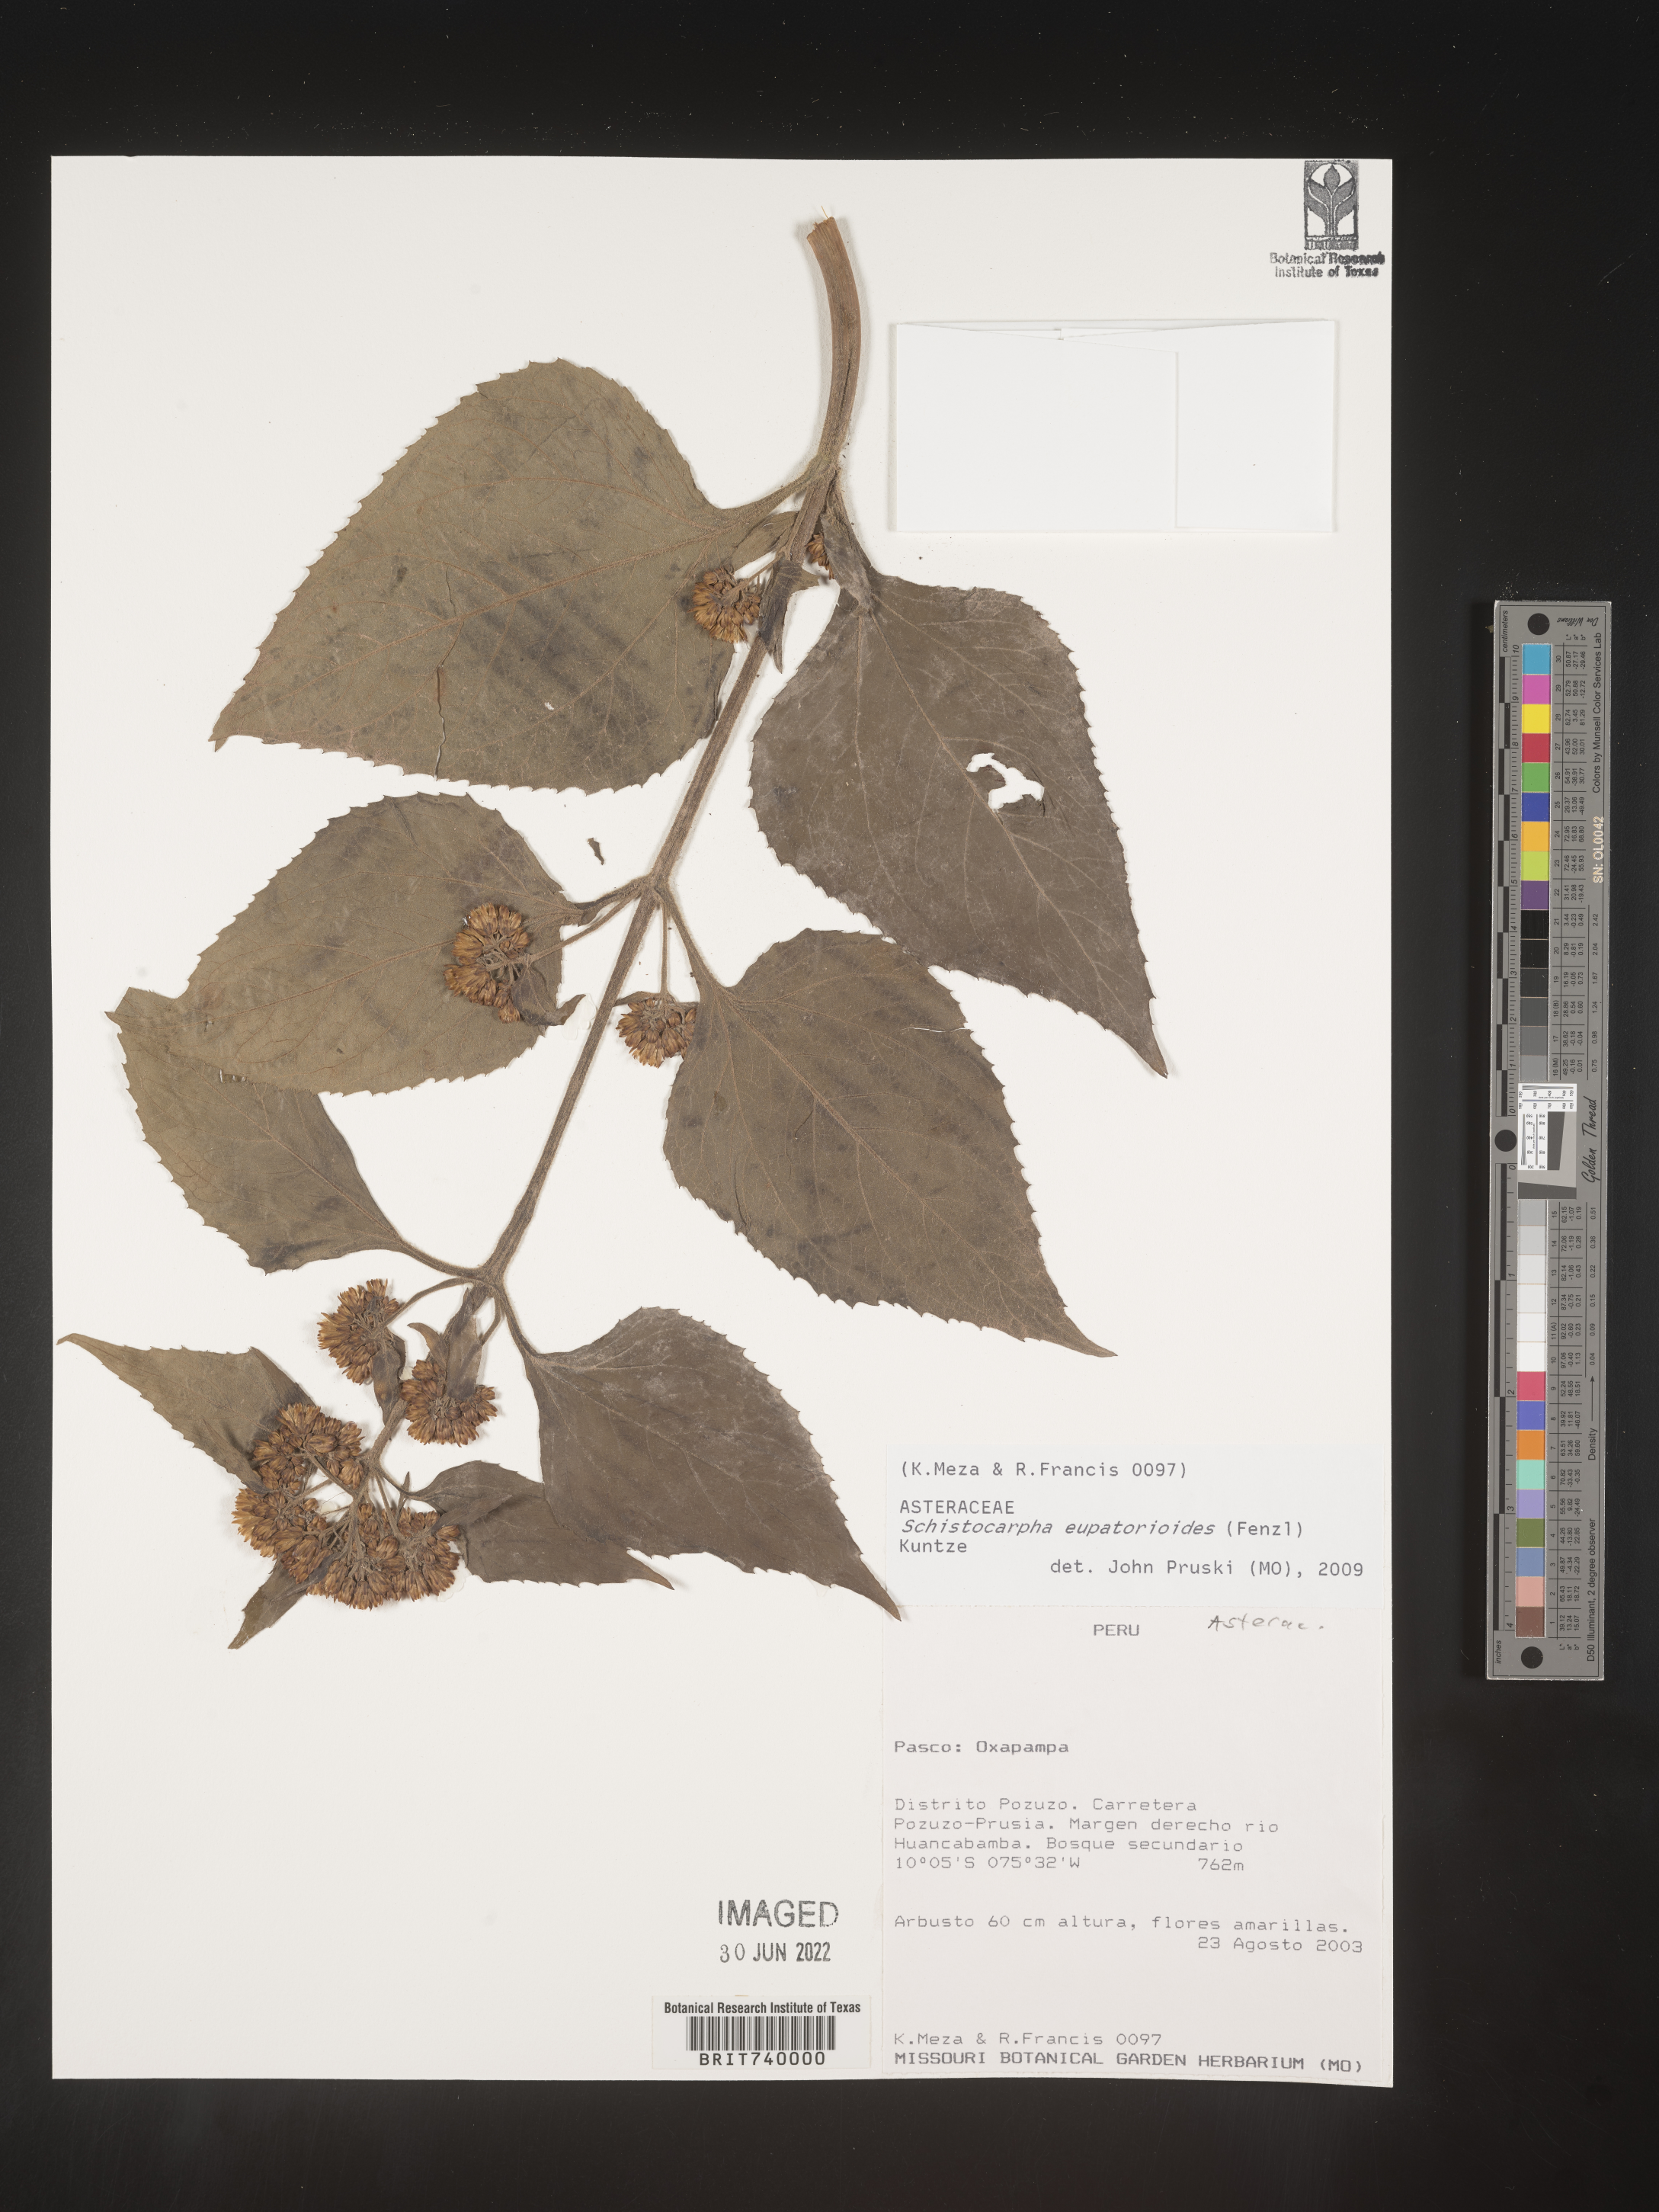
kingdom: Plantae
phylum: Tracheophyta
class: Magnoliopsida
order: Asterales
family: Asteraceae
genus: Schistocarpha
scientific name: Schistocarpha
